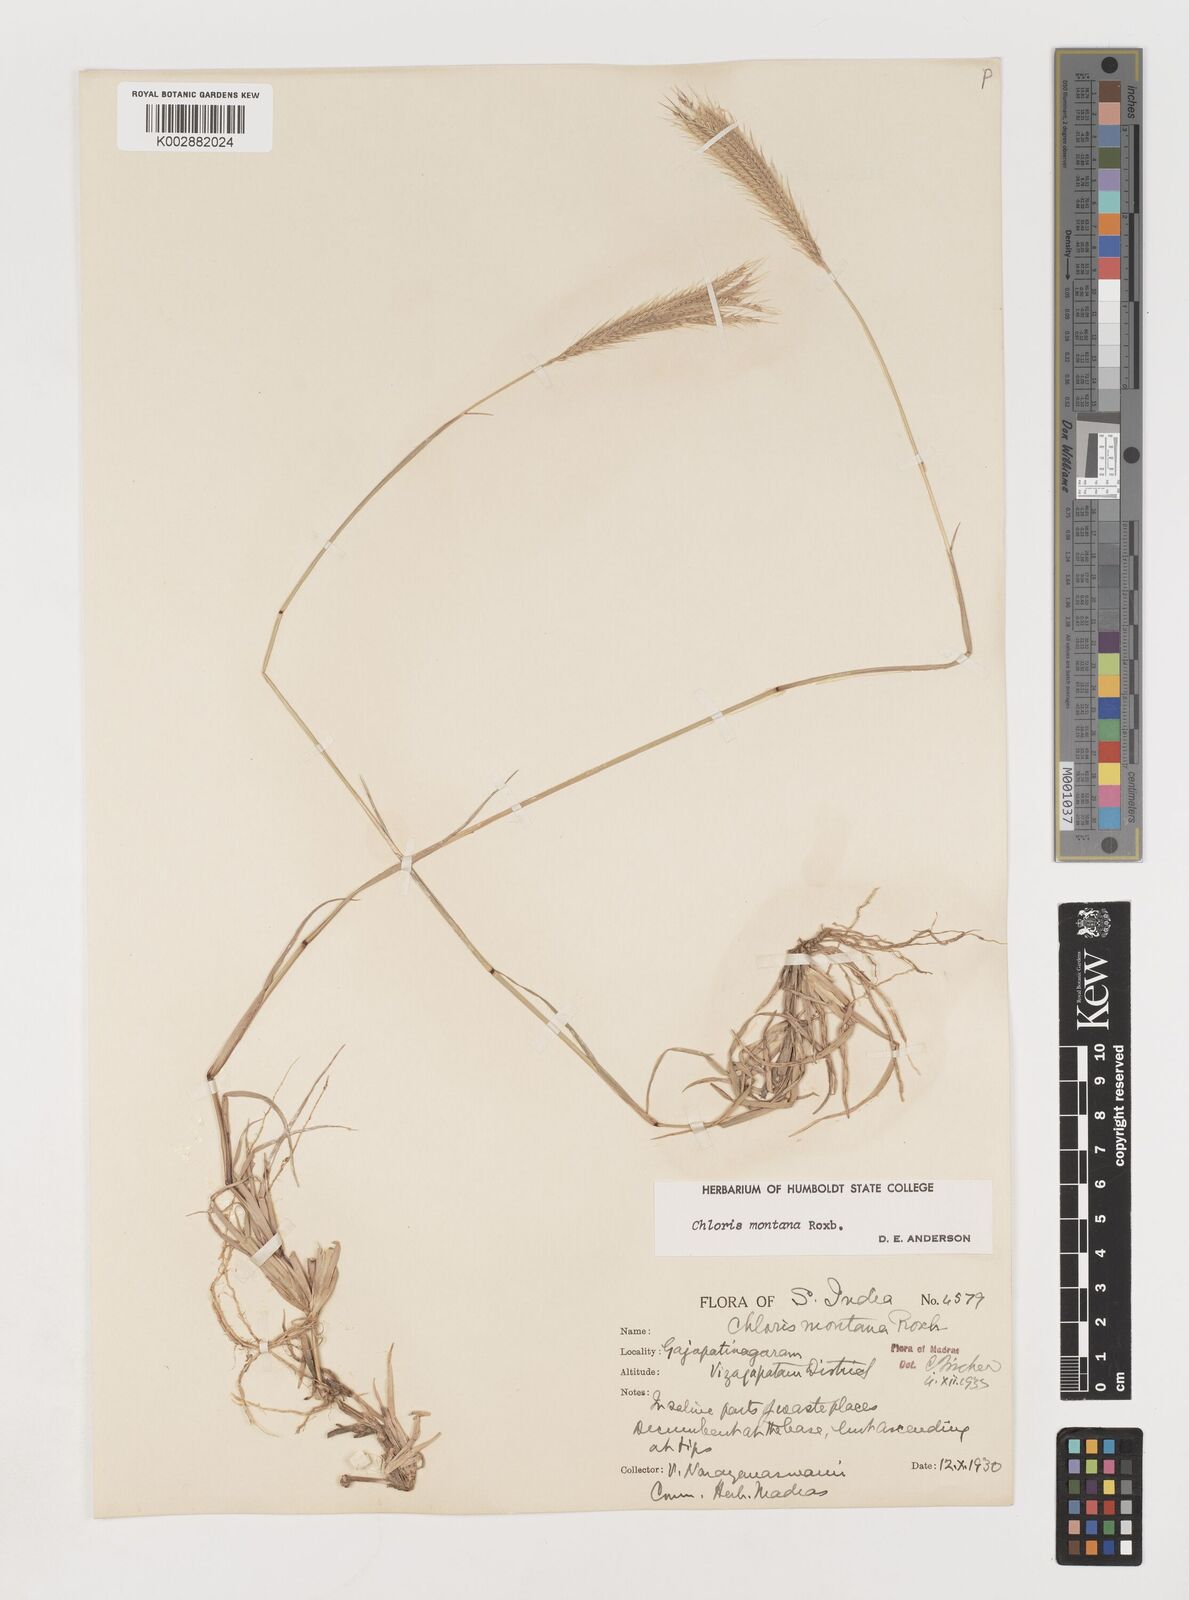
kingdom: Plantae
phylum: Tracheophyta
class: Liliopsida
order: Poales
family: Poaceae
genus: Chloris
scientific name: Chloris montana
